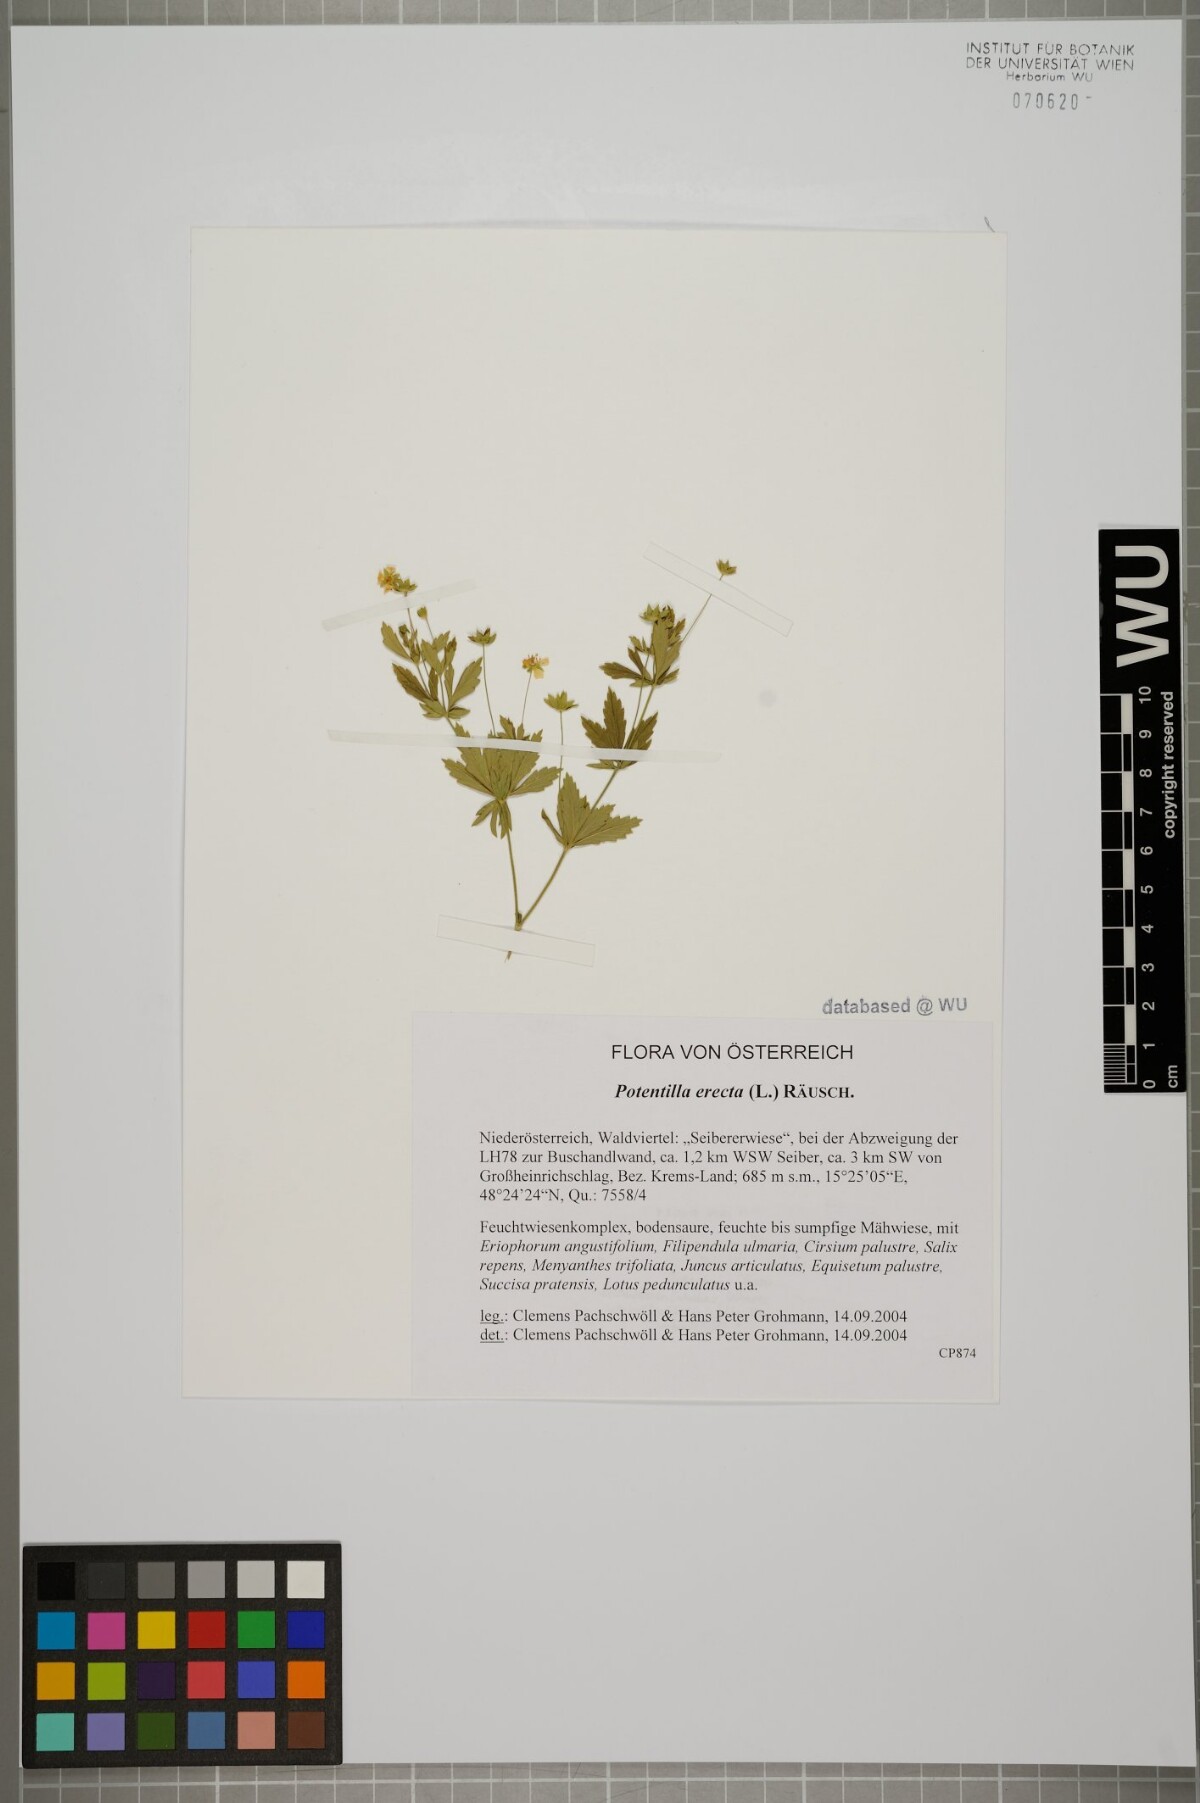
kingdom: Plantae
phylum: Tracheophyta
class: Magnoliopsida
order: Rosales
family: Rosaceae
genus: Potentilla
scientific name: Potentilla erecta
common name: Tormentil
